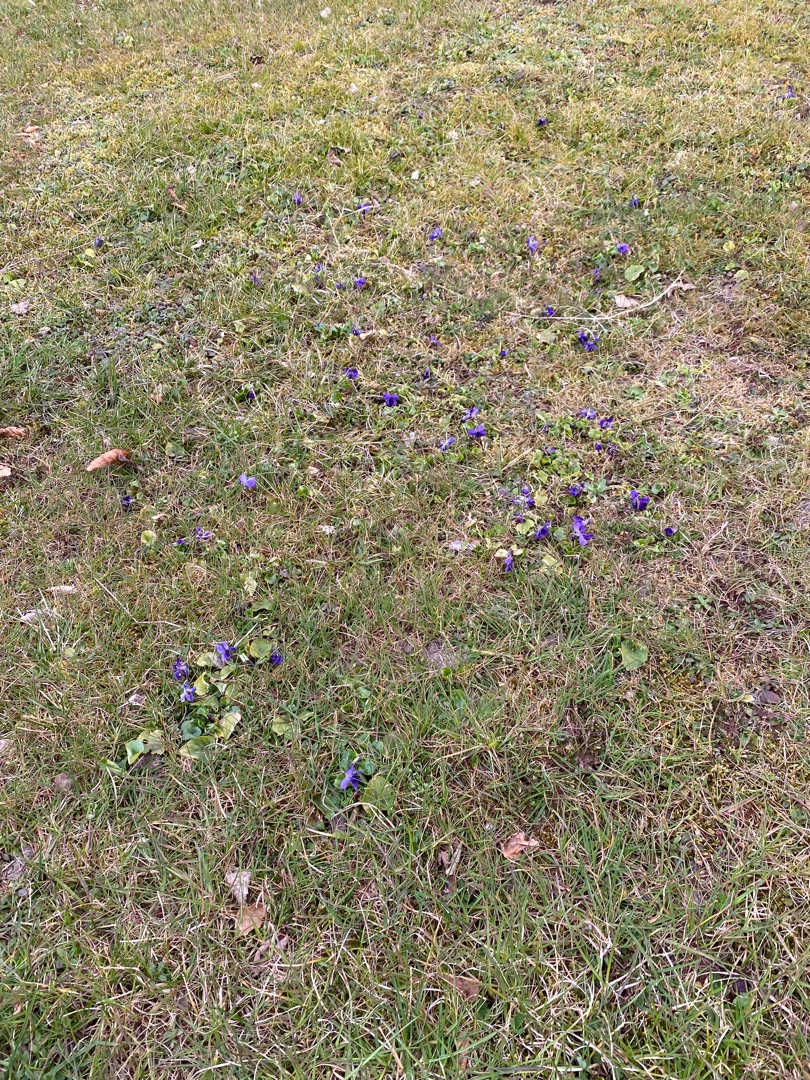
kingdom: Plantae
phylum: Tracheophyta
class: Magnoliopsida
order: Malpighiales
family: Violaceae
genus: Viola
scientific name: Viola odorata
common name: Marts-viol
